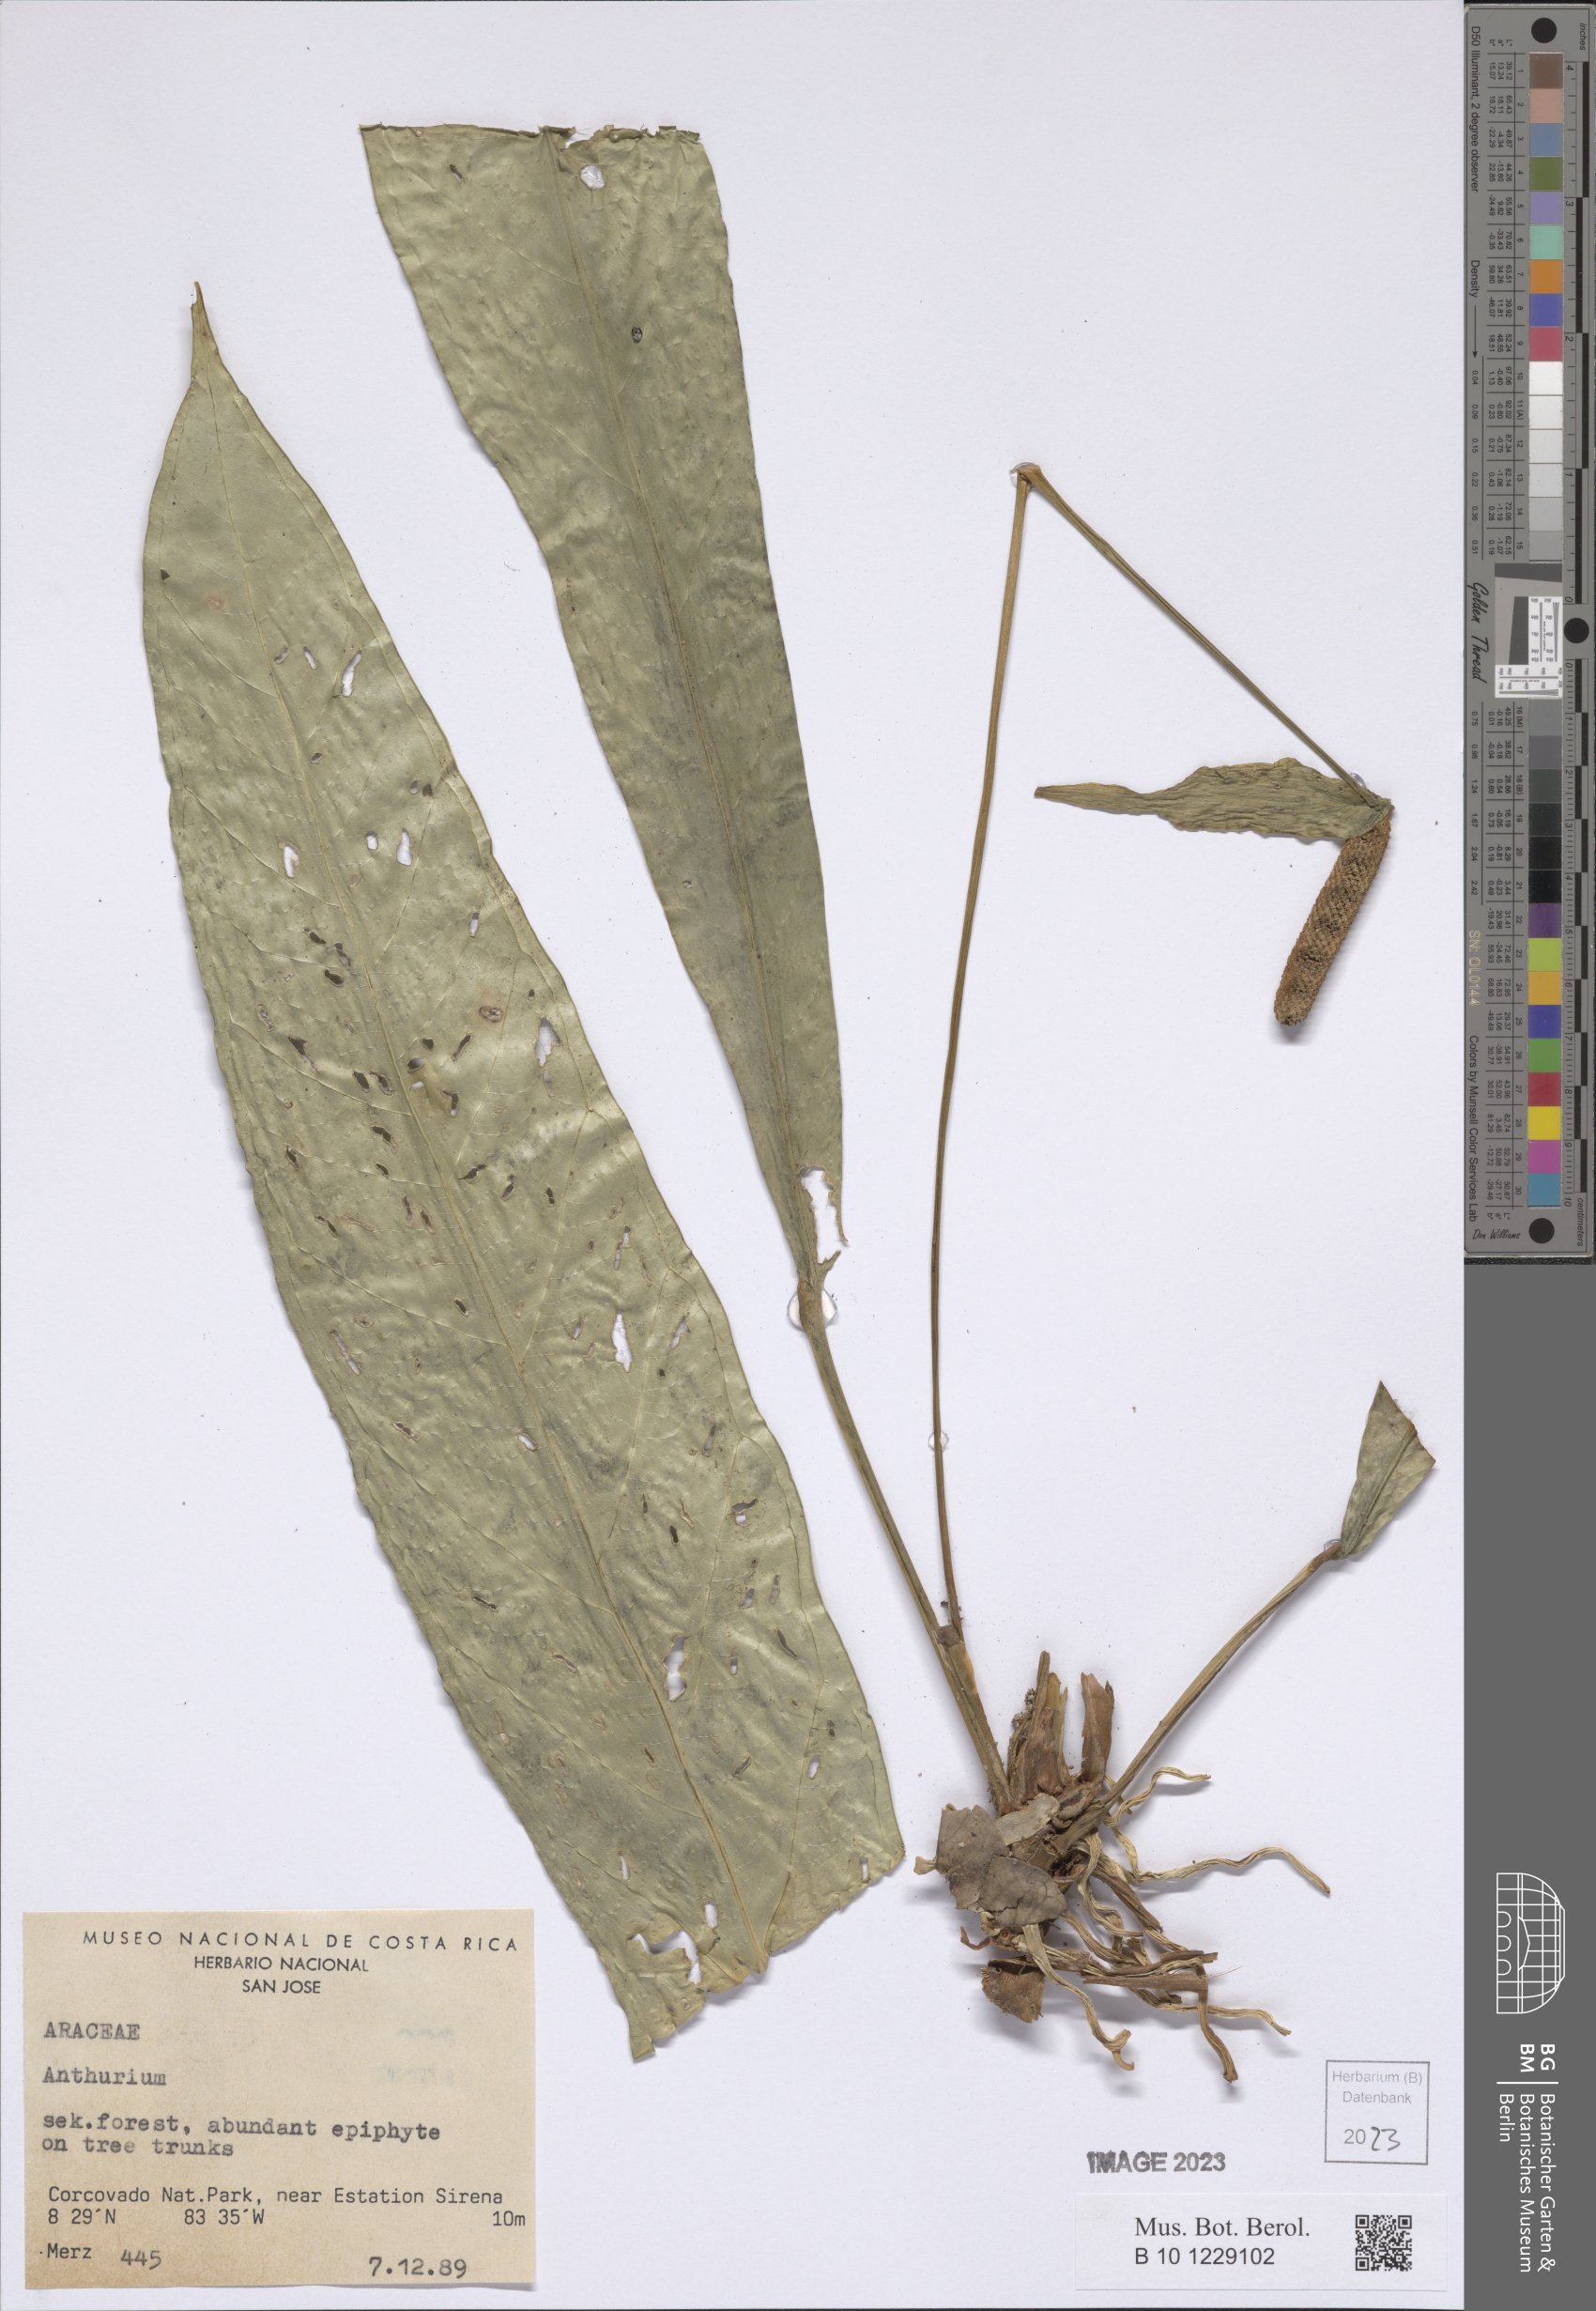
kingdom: Plantae
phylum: Tracheophyta
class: Liliopsida
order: Alismatales
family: Araceae
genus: Anthurium
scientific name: Anthurium
